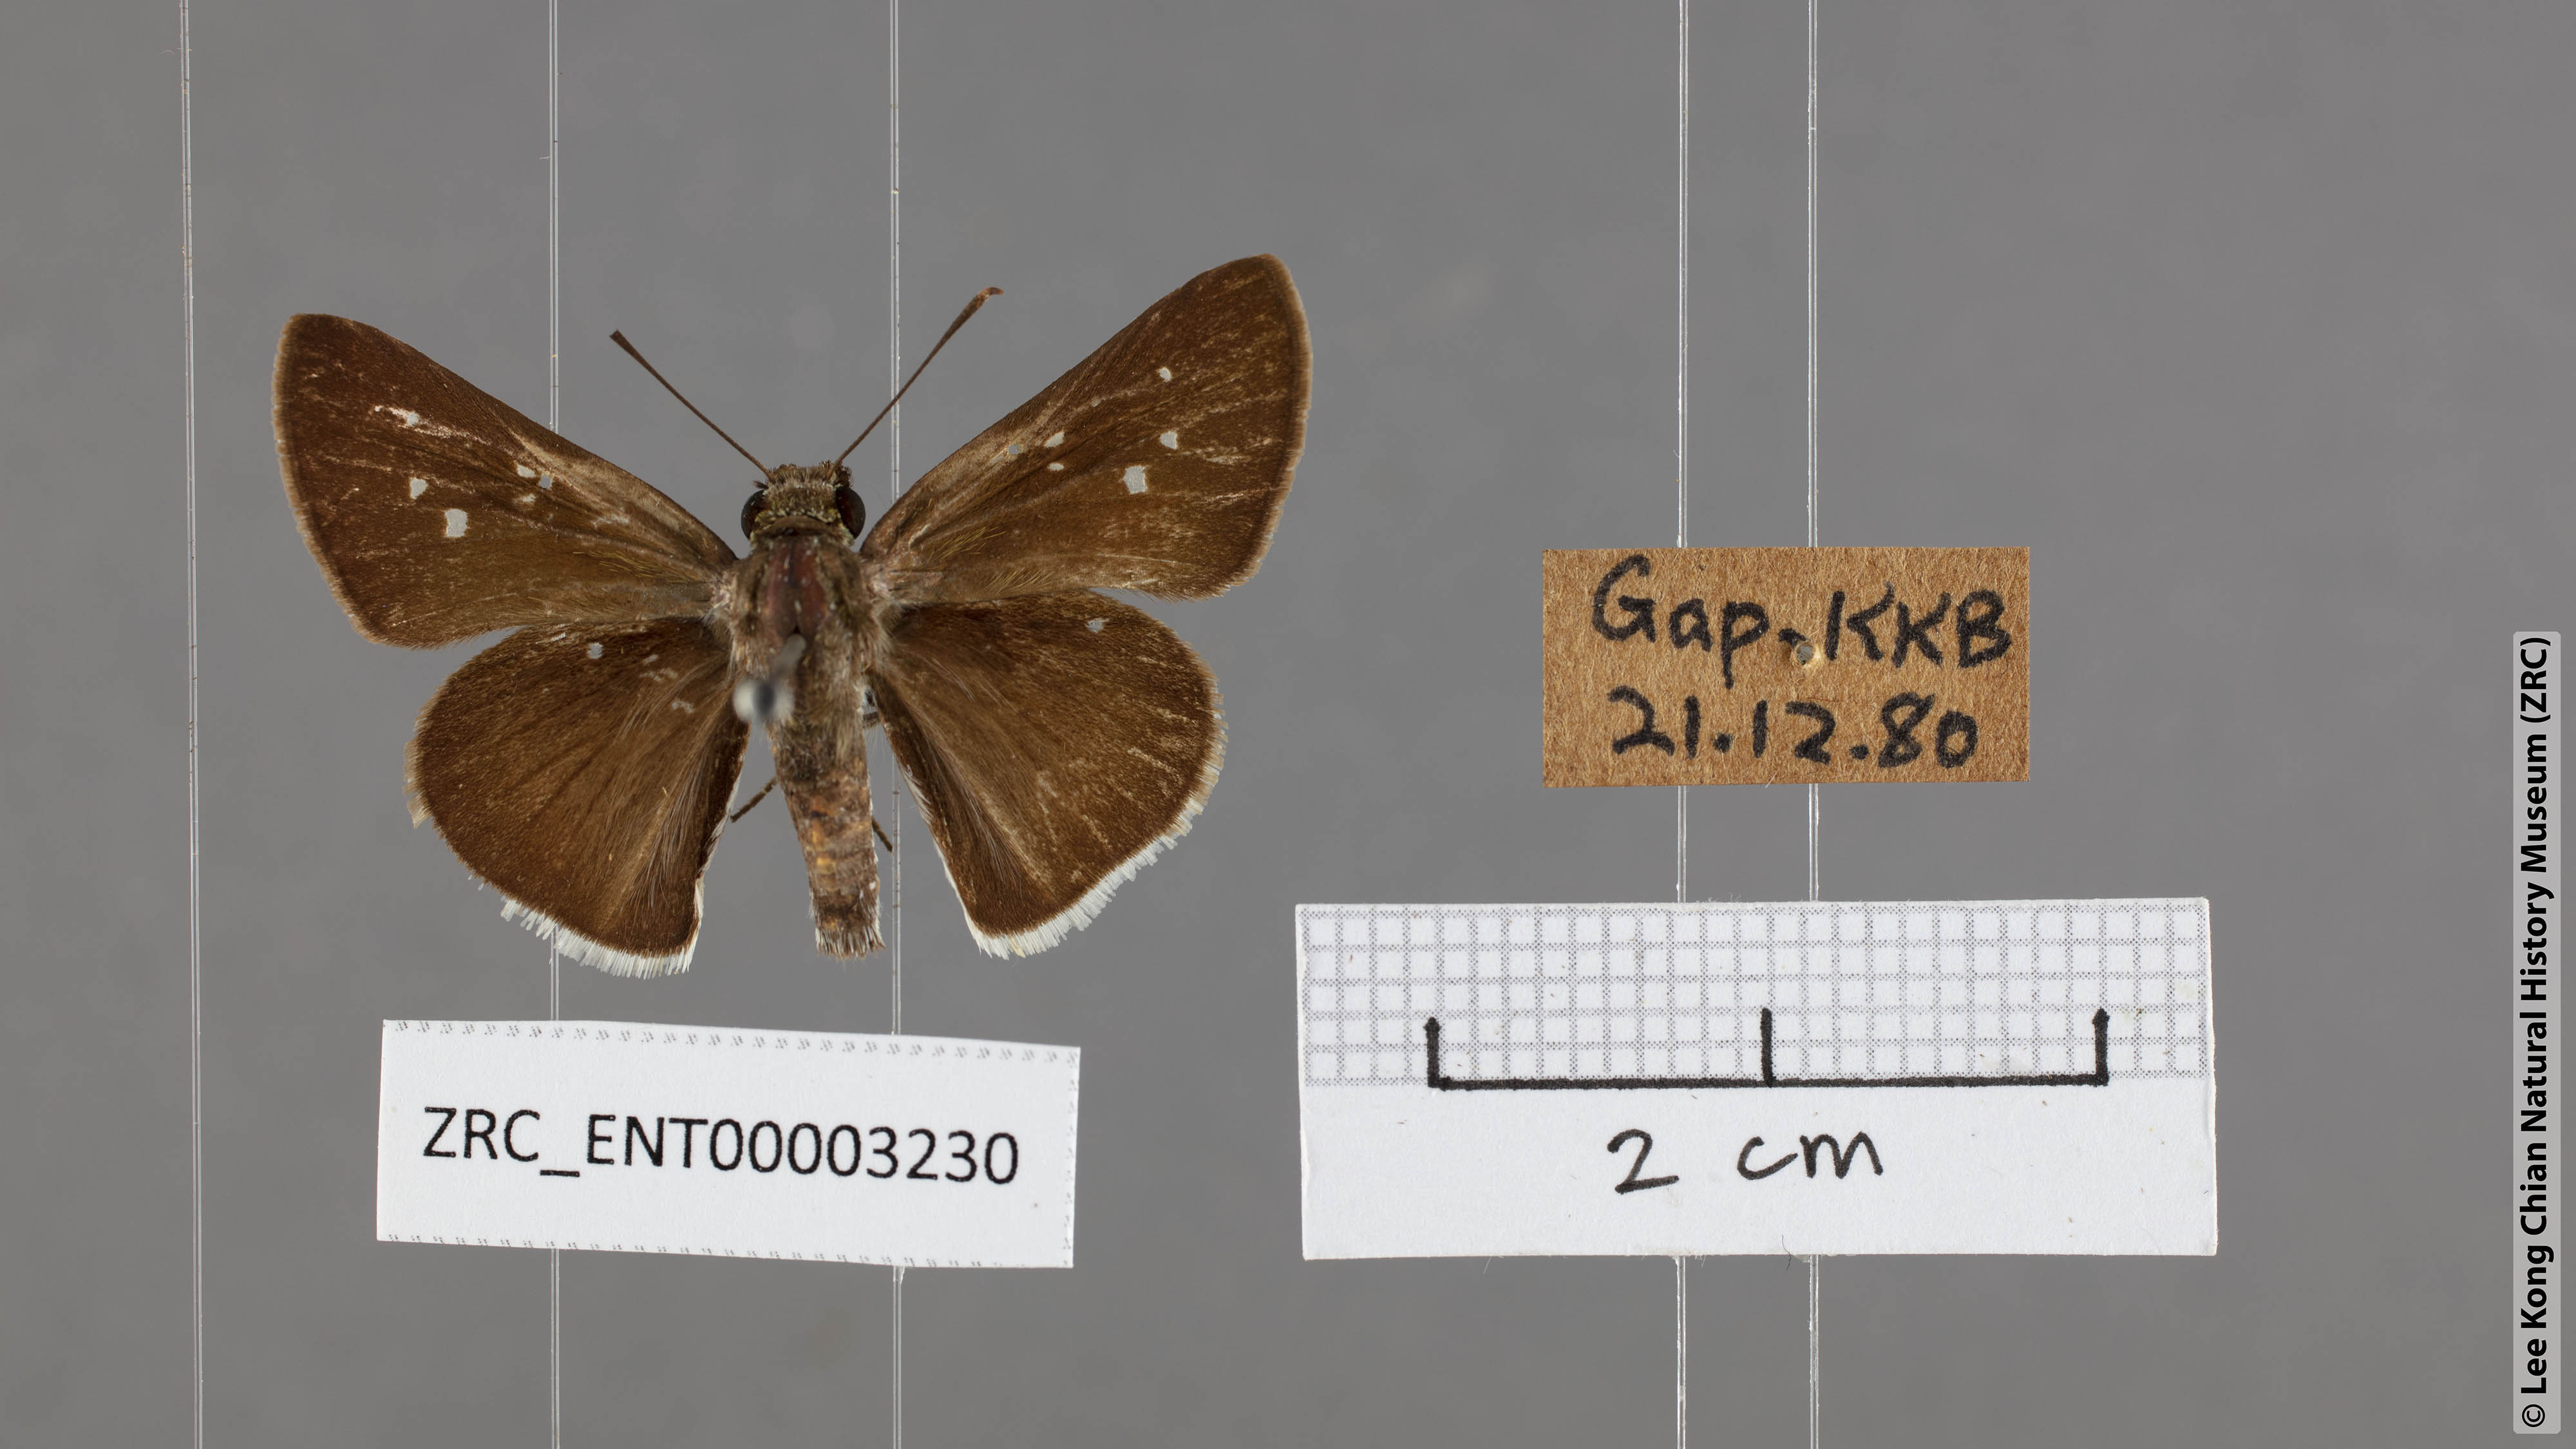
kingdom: Animalia
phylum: Arthropoda
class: Insecta
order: Lepidoptera
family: Hesperiidae
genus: Halpe
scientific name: Halpe insignis
